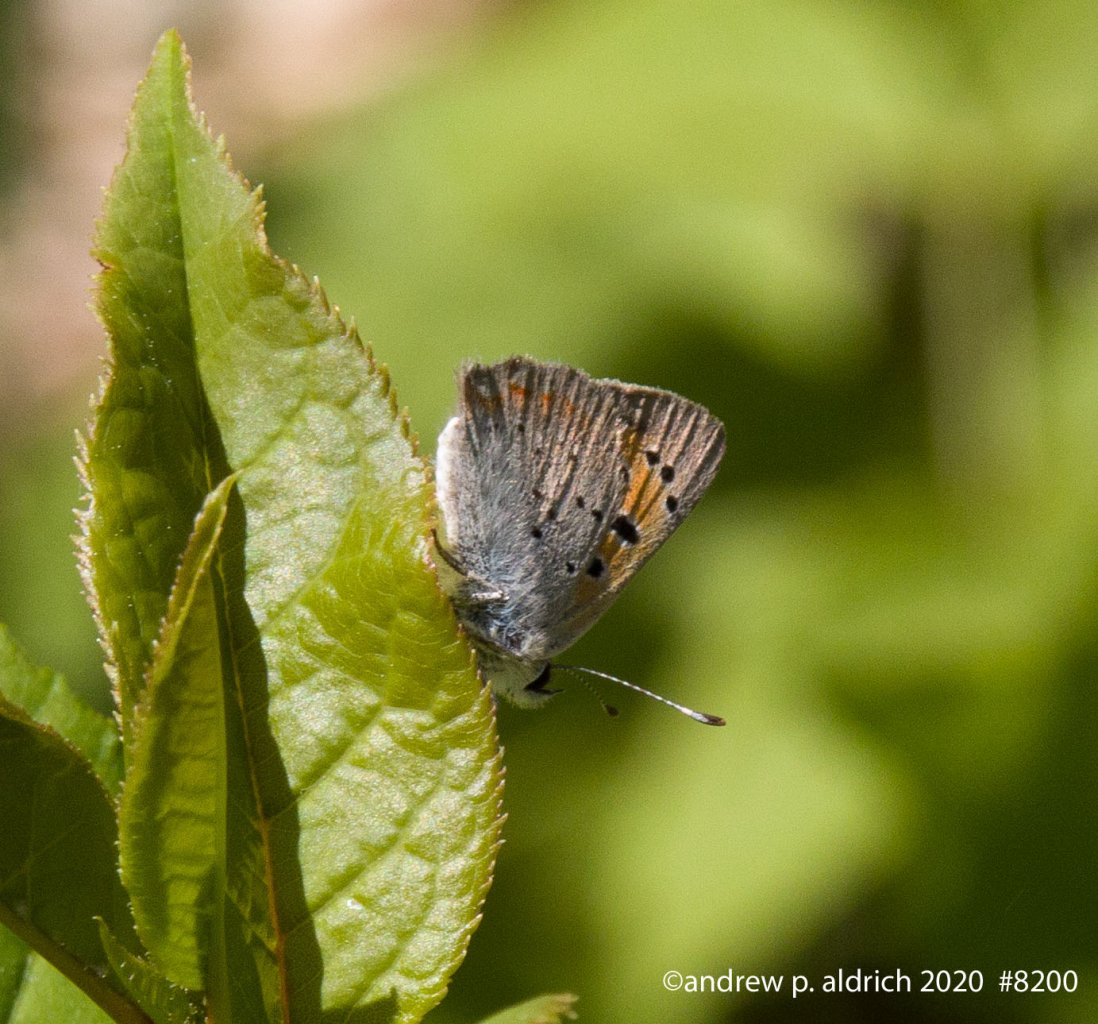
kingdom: Animalia
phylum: Arthropoda
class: Insecta
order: Lepidoptera
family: Lycaenidae
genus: Lycaena
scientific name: Lycaena phlaeas
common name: American Copper
